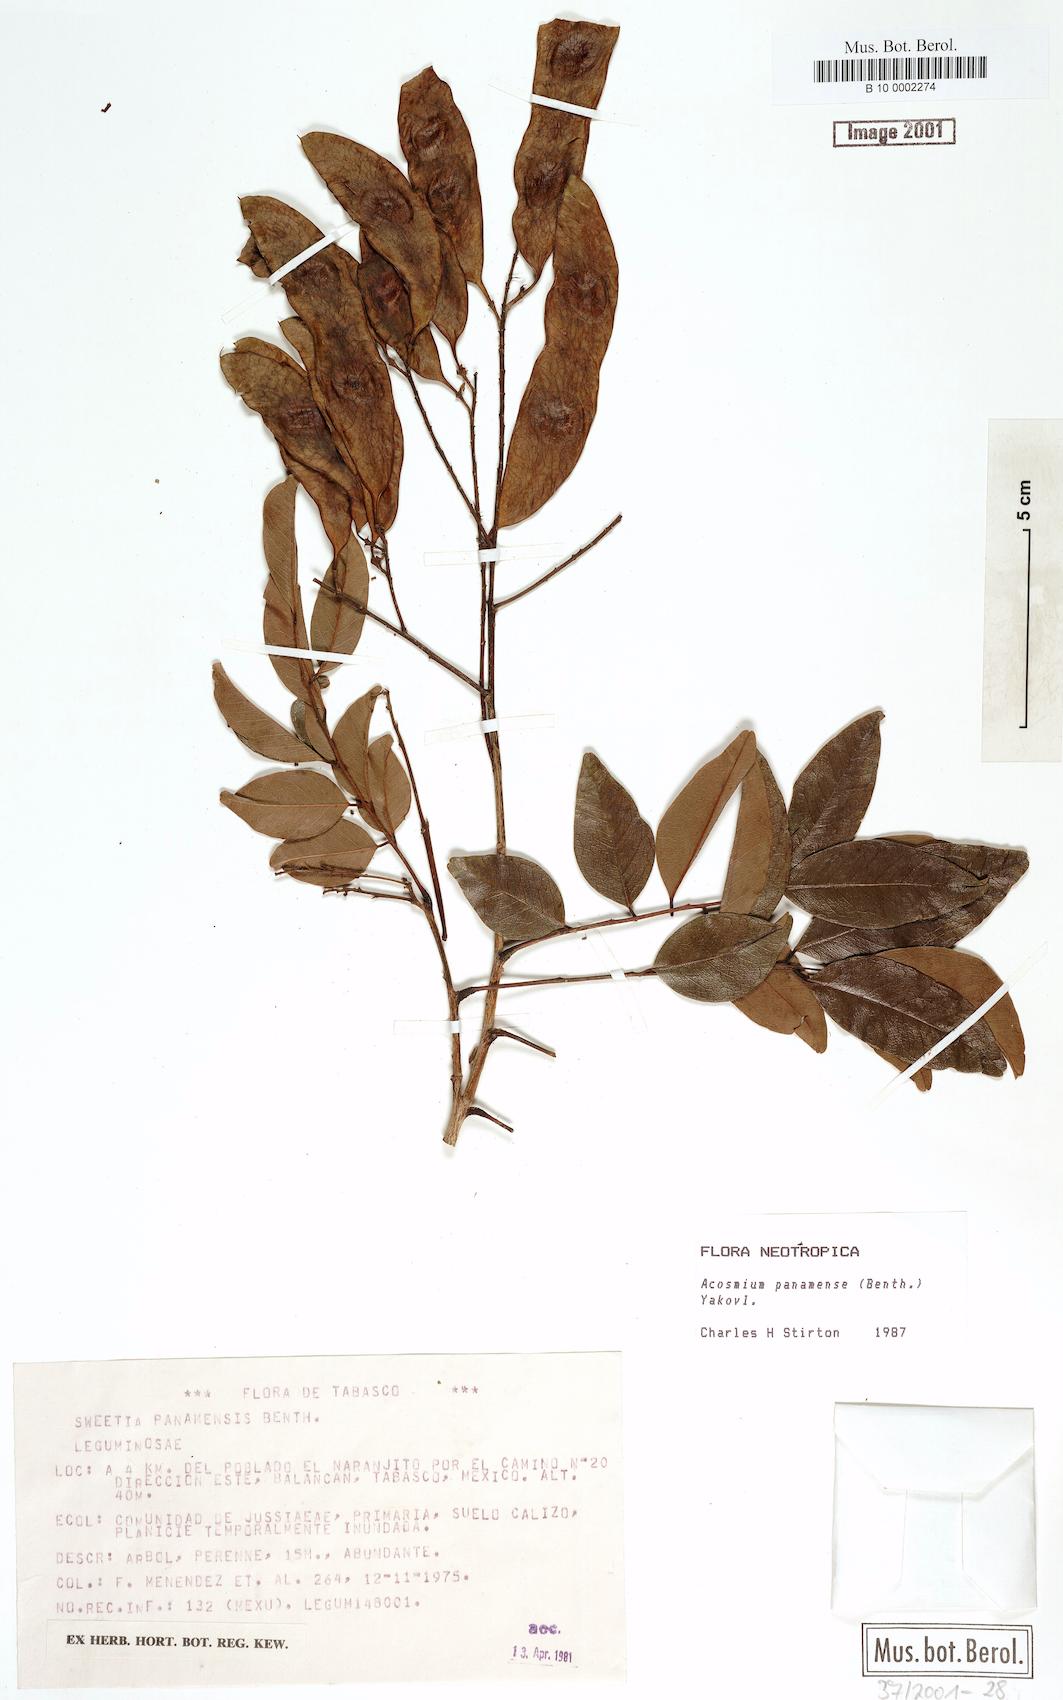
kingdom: Plantae
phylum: Tracheophyta
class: Magnoliopsida
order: Fabales
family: Fabaceae
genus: Leptolobium
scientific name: Leptolobium panamense
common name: Billy webb
